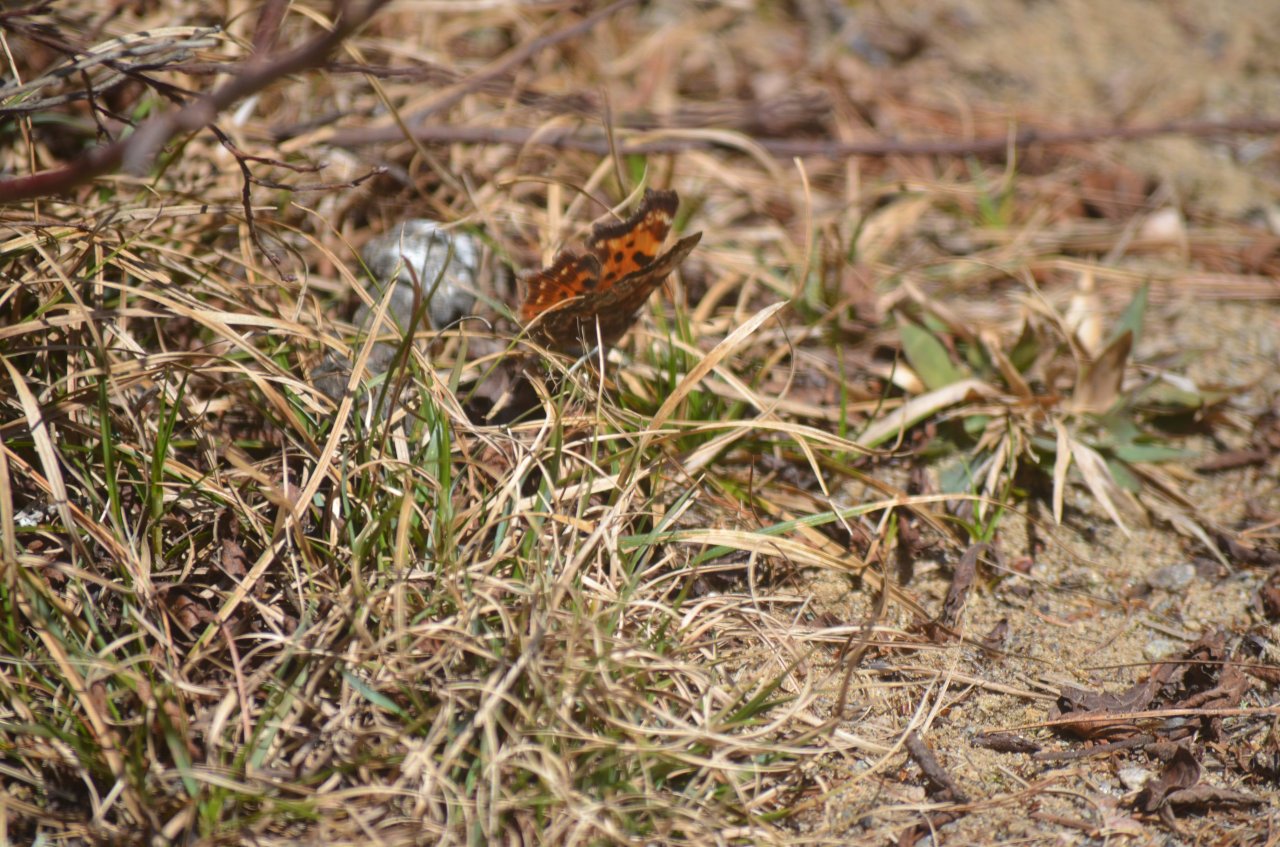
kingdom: Animalia
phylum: Arthropoda
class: Insecta
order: Lepidoptera
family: Nymphalidae
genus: Polygonia
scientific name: Polygonia faunus
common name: Green Comma
